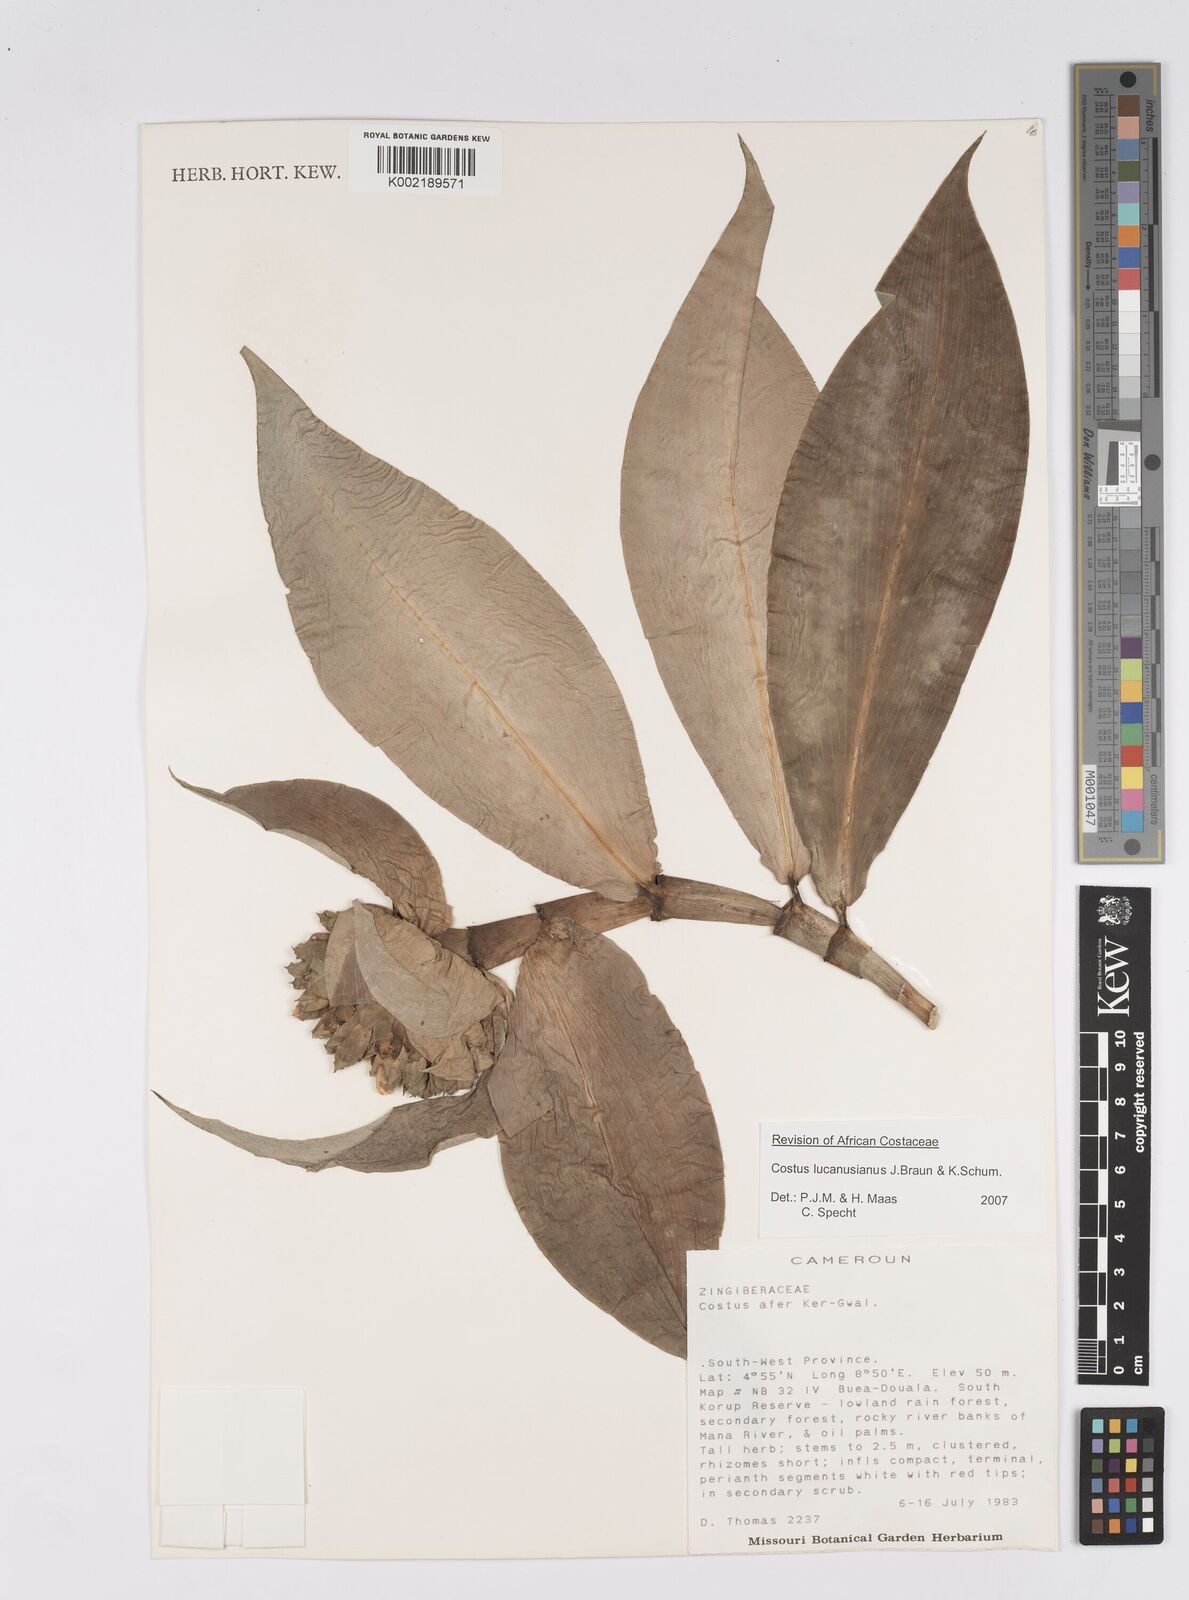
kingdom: Plantae
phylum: Tracheophyta
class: Liliopsida
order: Zingiberales
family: Costaceae
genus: Costus
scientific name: Costus lucanusianus
